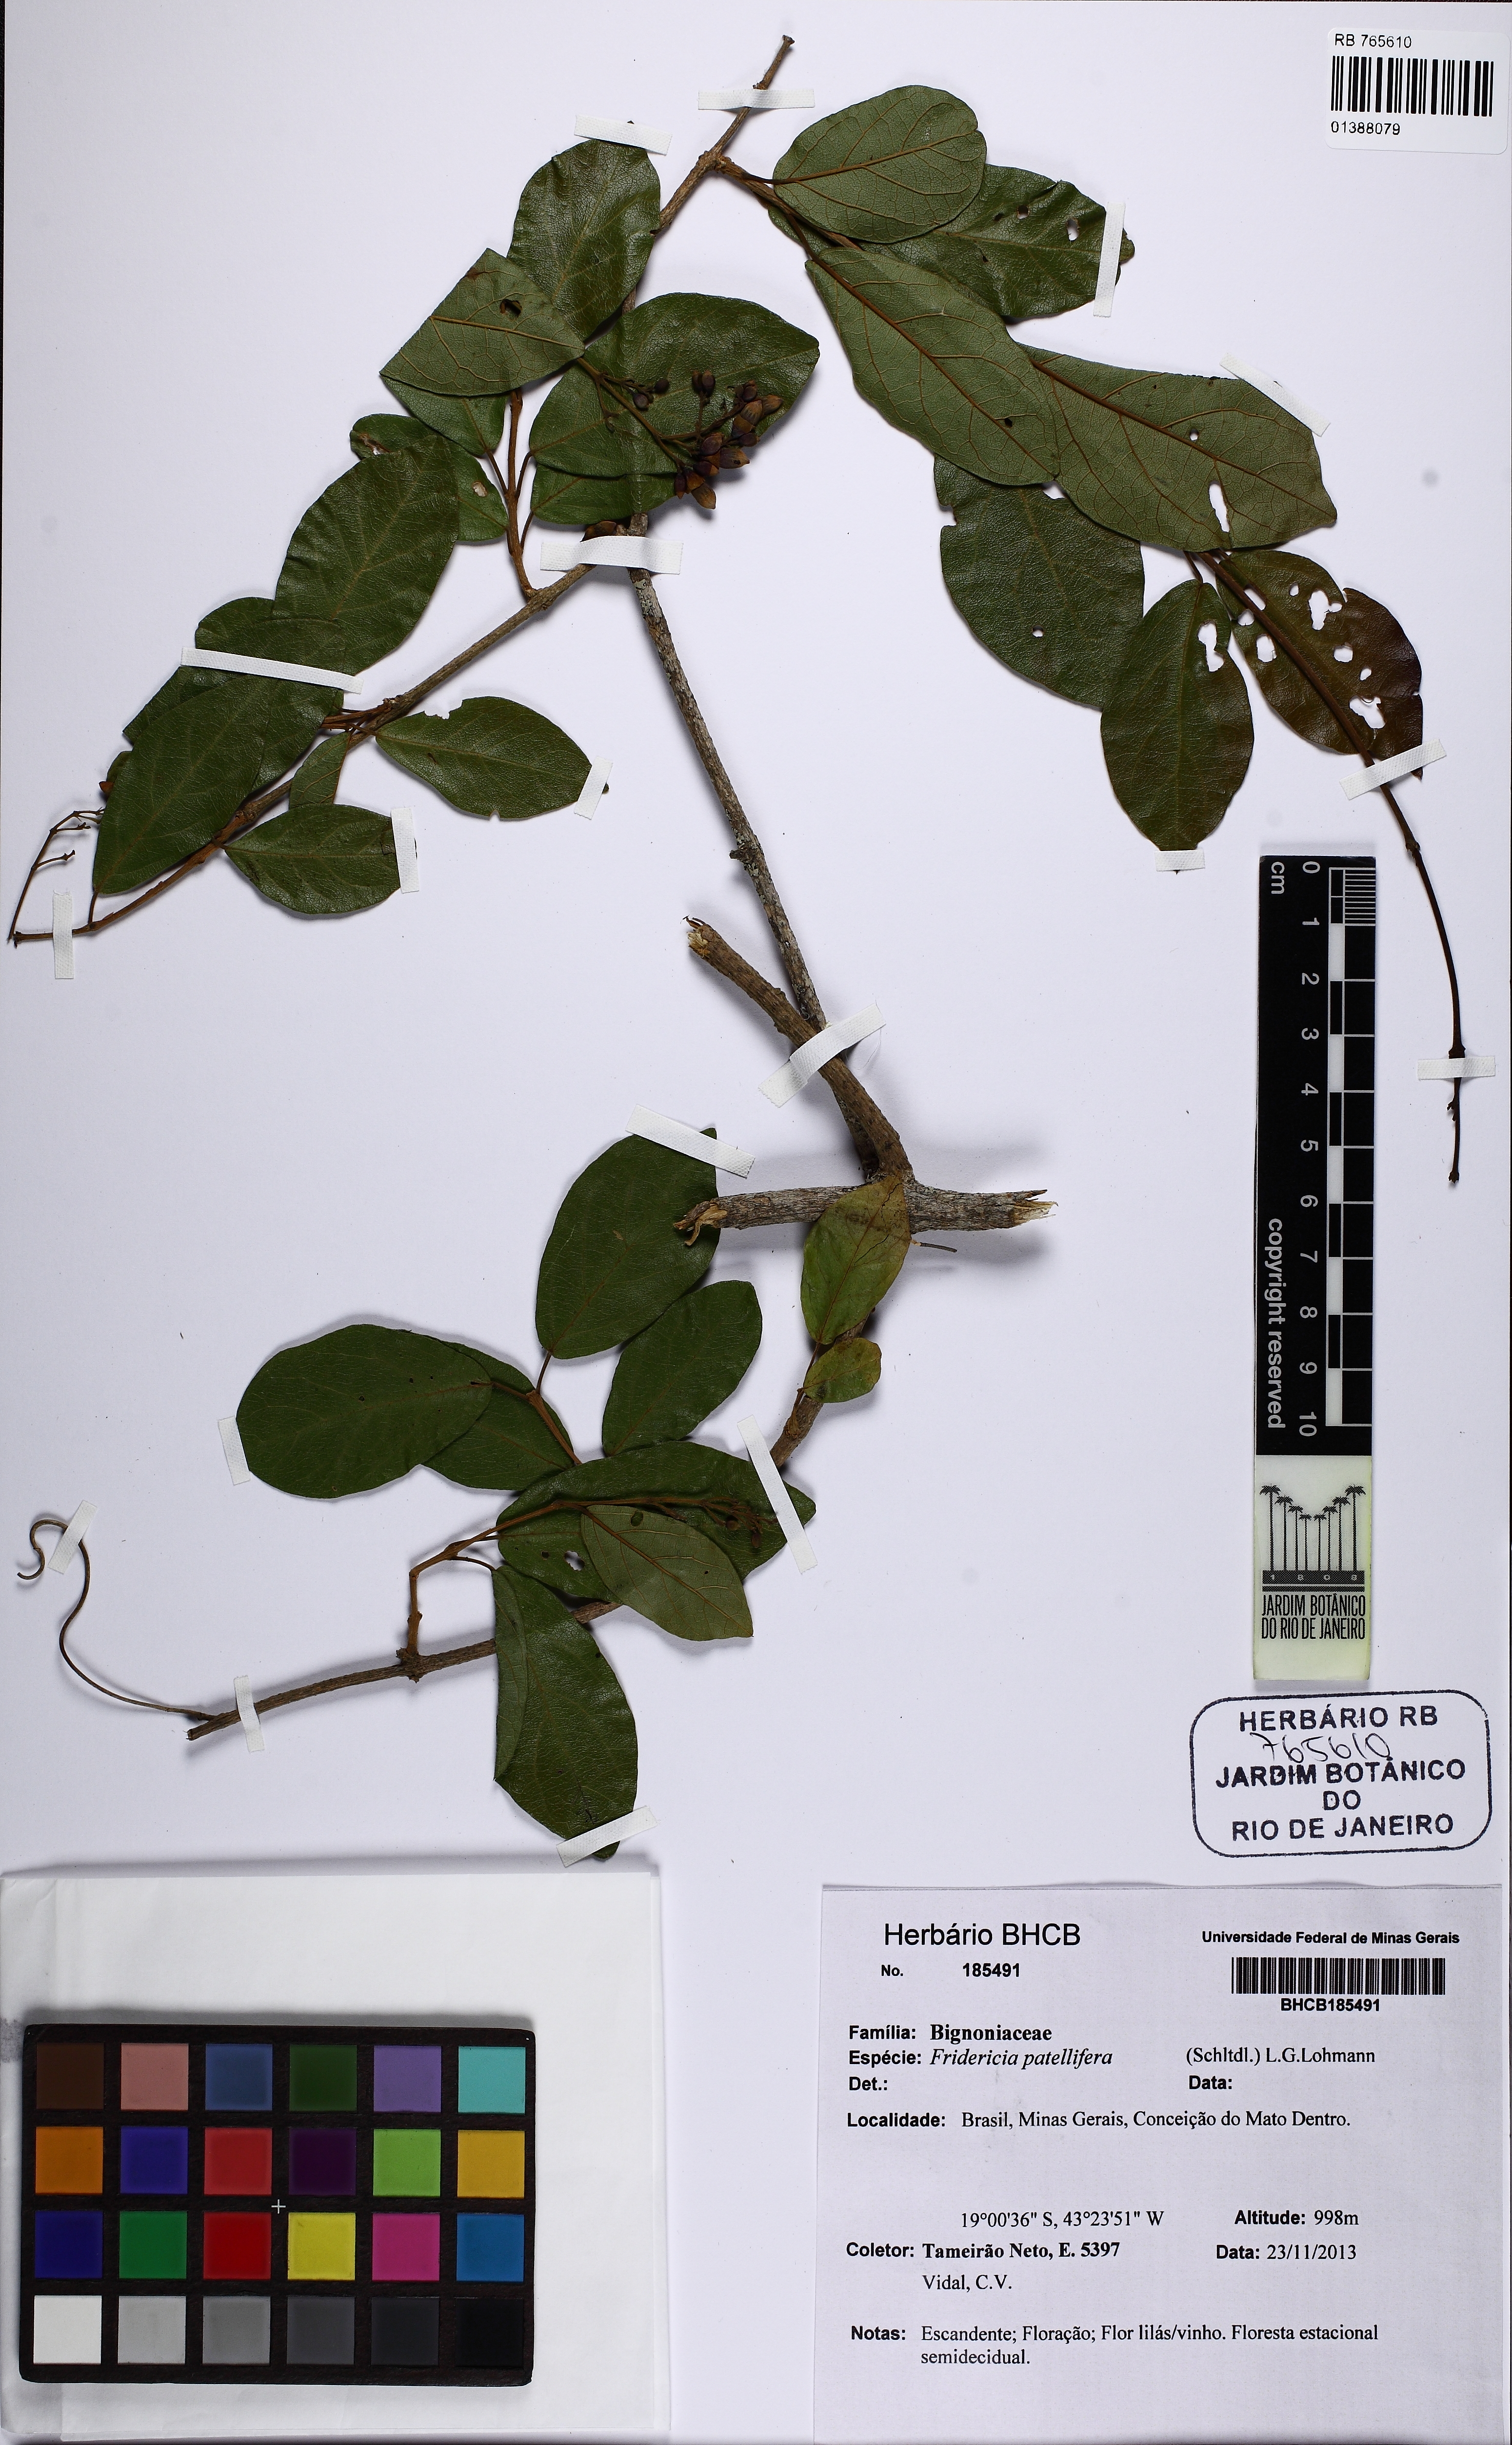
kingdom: Plantae
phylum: Tracheophyta
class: Magnoliopsida
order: Lamiales
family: Bignoniaceae
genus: Fridericia
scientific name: Fridericia patellifera
